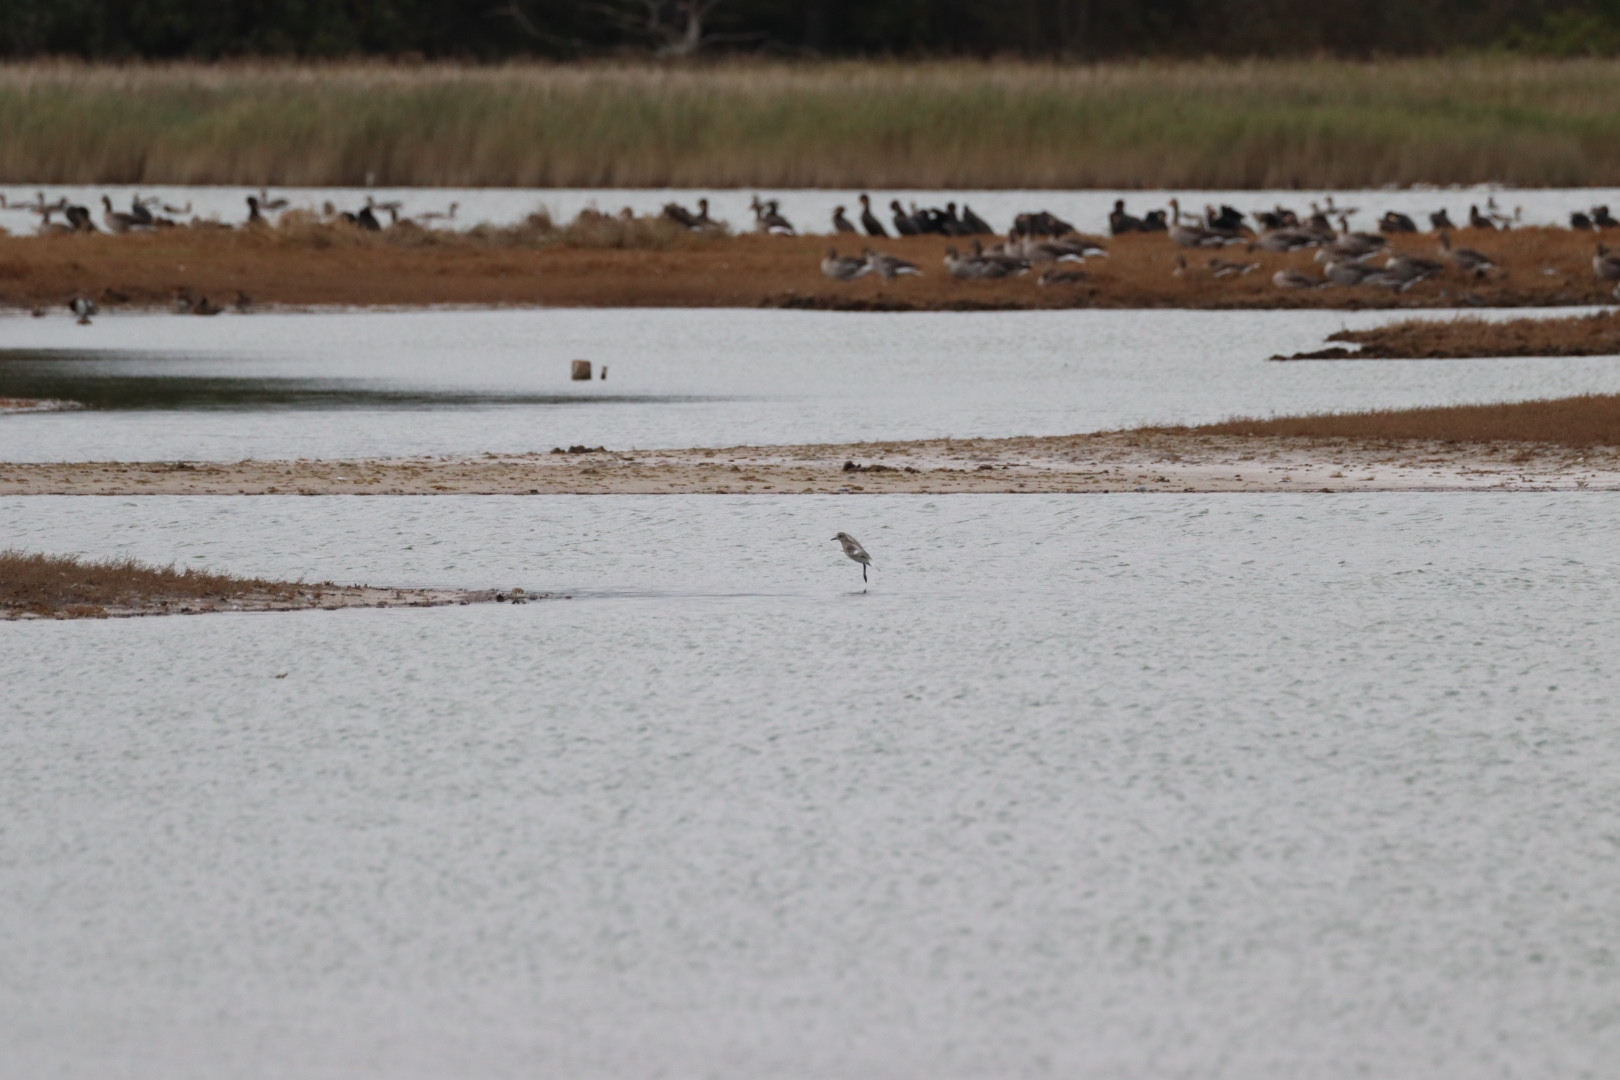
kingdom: Animalia
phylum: Chordata
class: Aves
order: Charadriiformes
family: Charadriidae
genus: Pluvialis
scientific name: Pluvialis squatarola
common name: Strandhjejle
